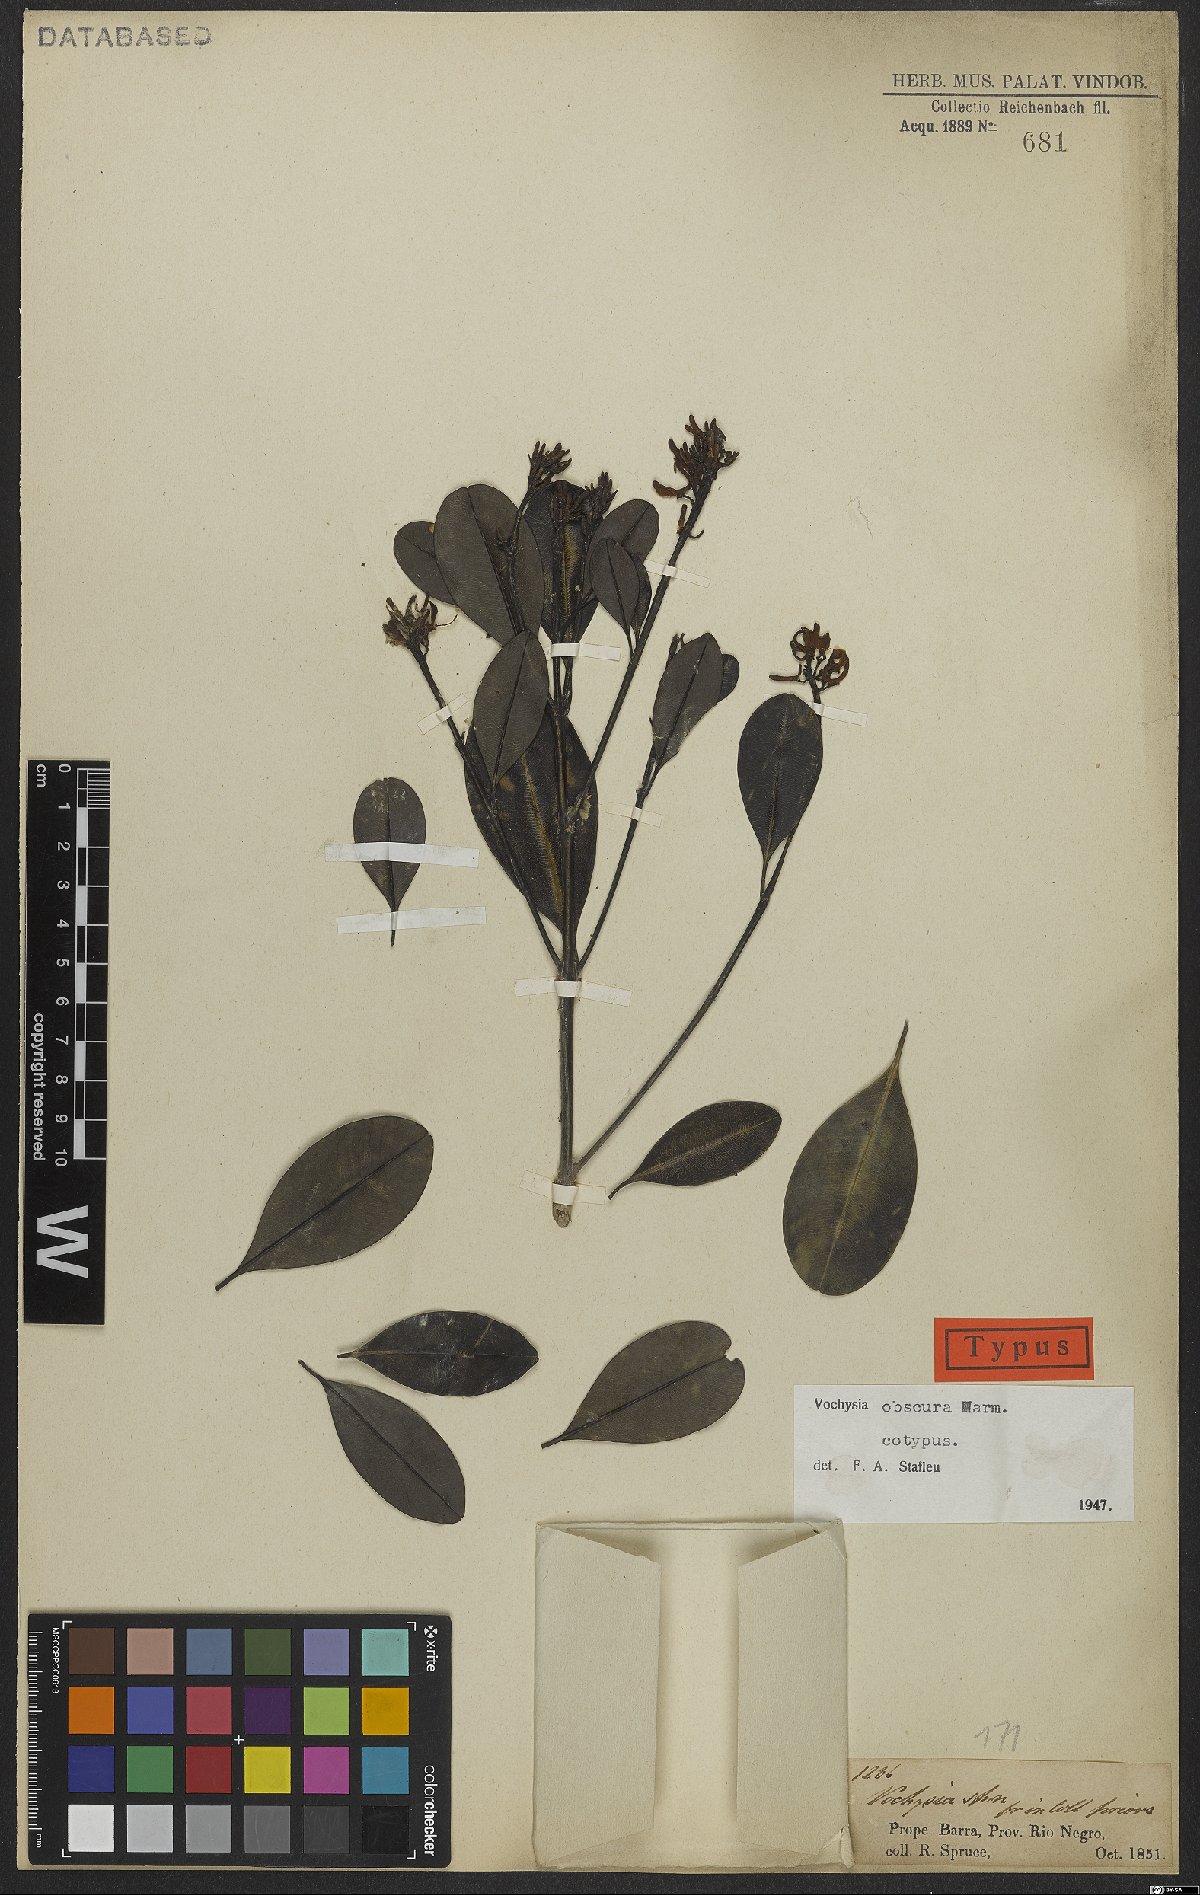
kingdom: Plantae
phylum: Tracheophyta
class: Magnoliopsida
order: Myrtales
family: Vochysiaceae
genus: Vochysia
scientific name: Vochysia obscura
